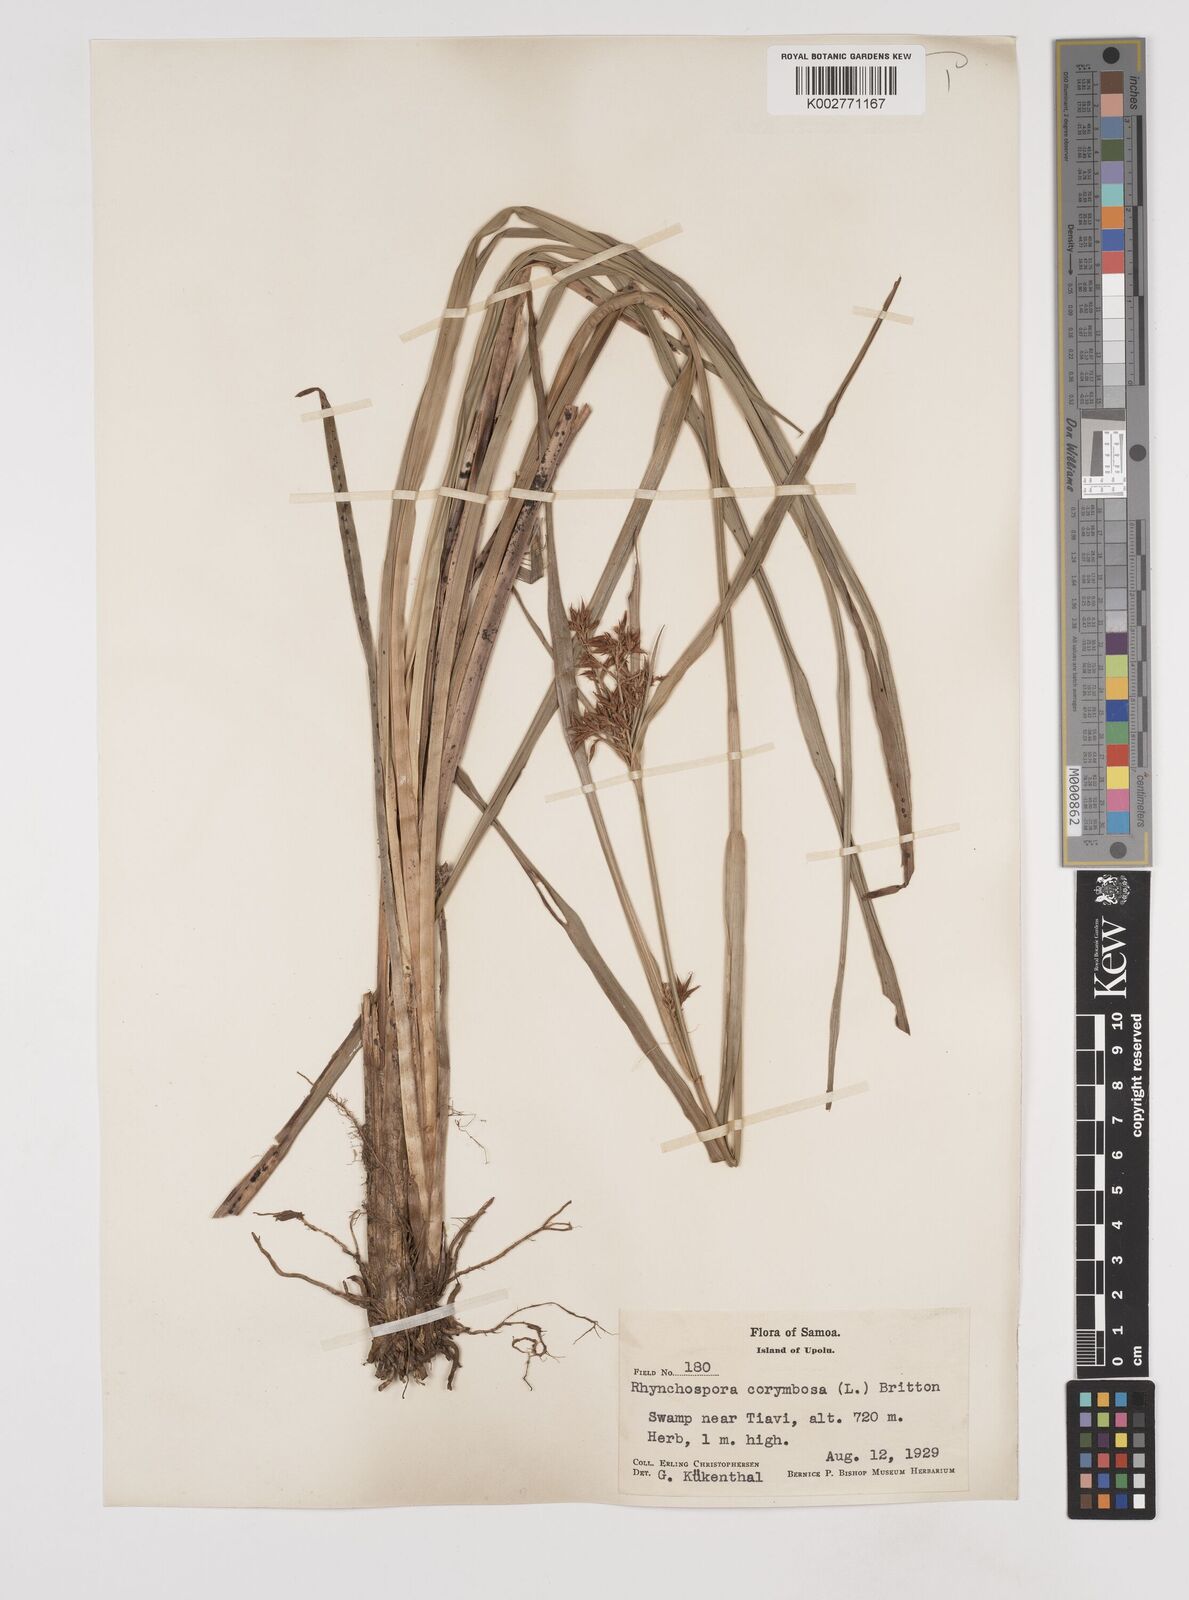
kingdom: Plantae
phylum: Tracheophyta
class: Liliopsida
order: Poales
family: Cyperaceae
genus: Rhynchospora
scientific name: Rhynchospora corymbosa
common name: Golden beak sedge
